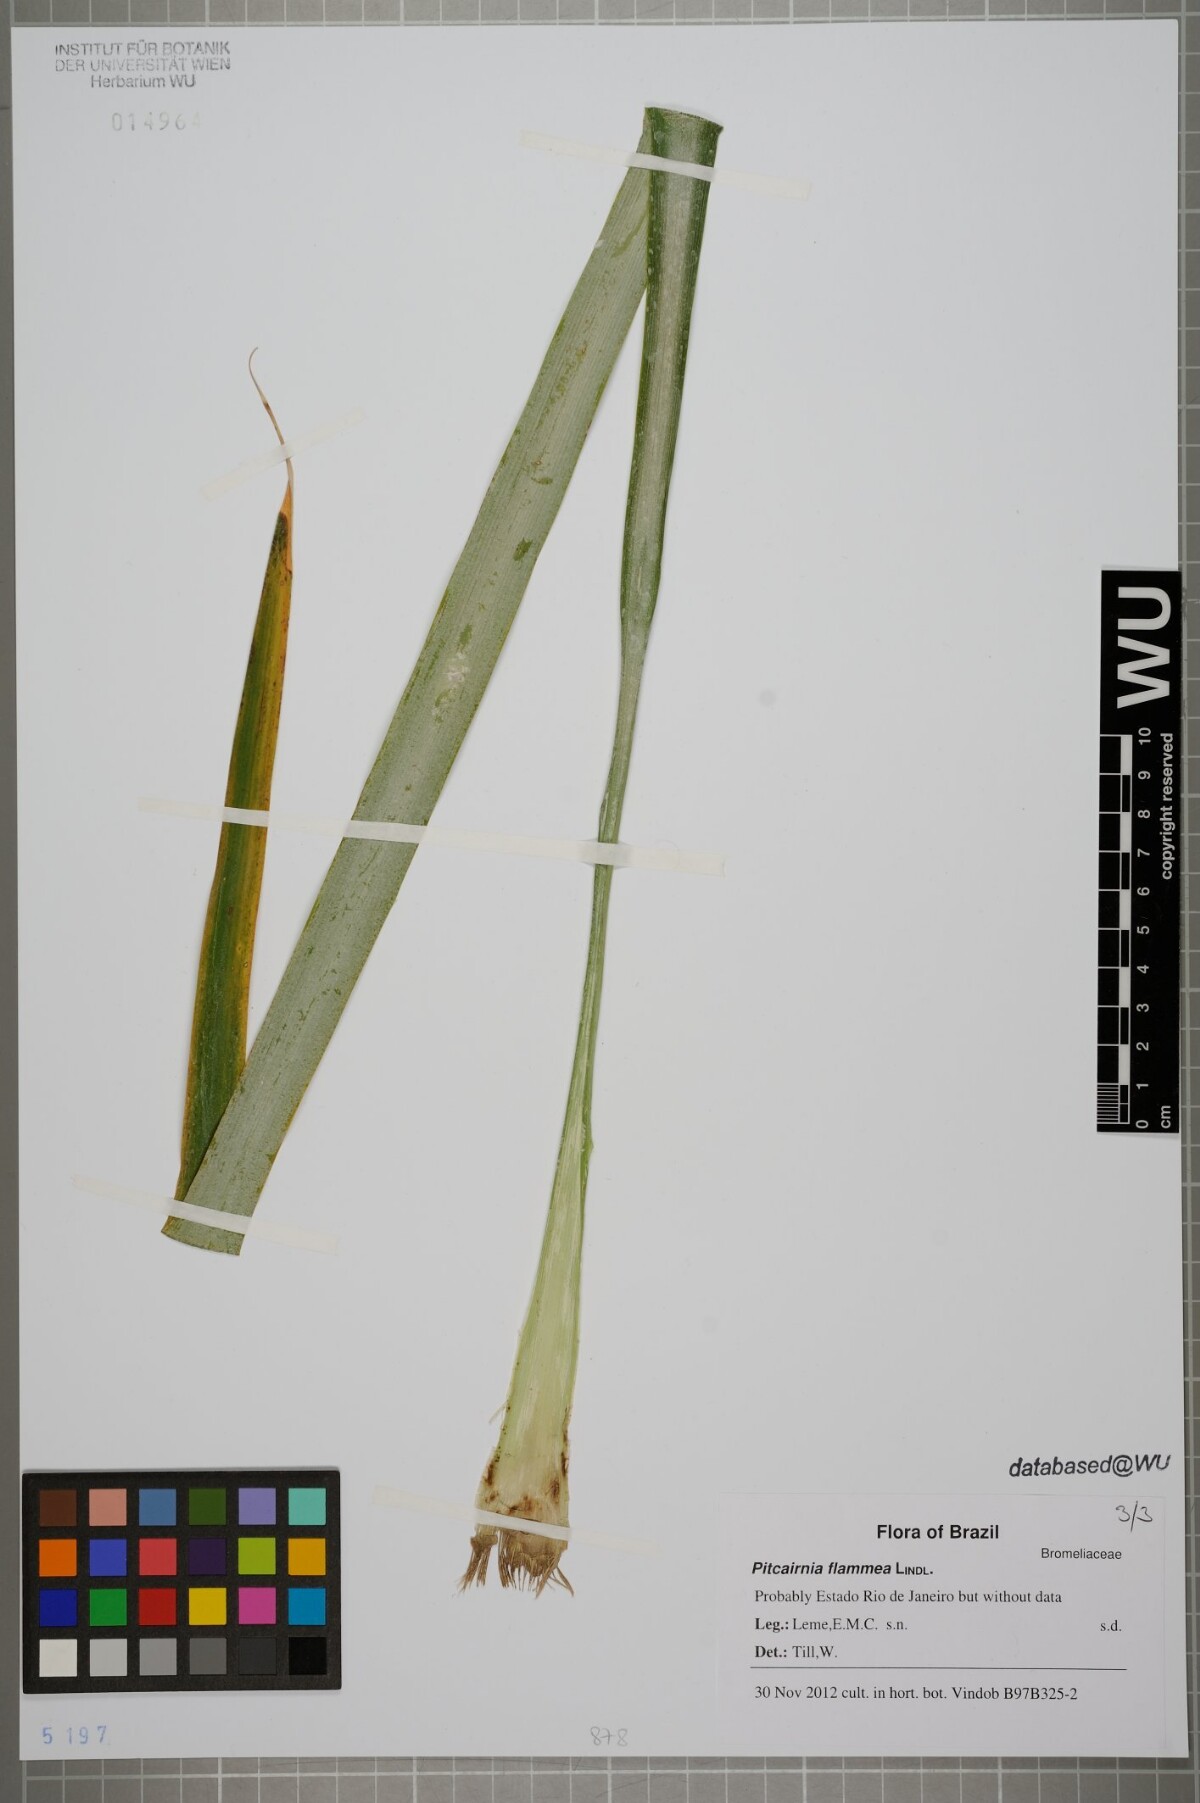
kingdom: Plantae
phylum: Tracheophyta
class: Liliopsida
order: Poales
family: Bromeliaceae
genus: Pitcairnia
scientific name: Pitcairnia flammea
